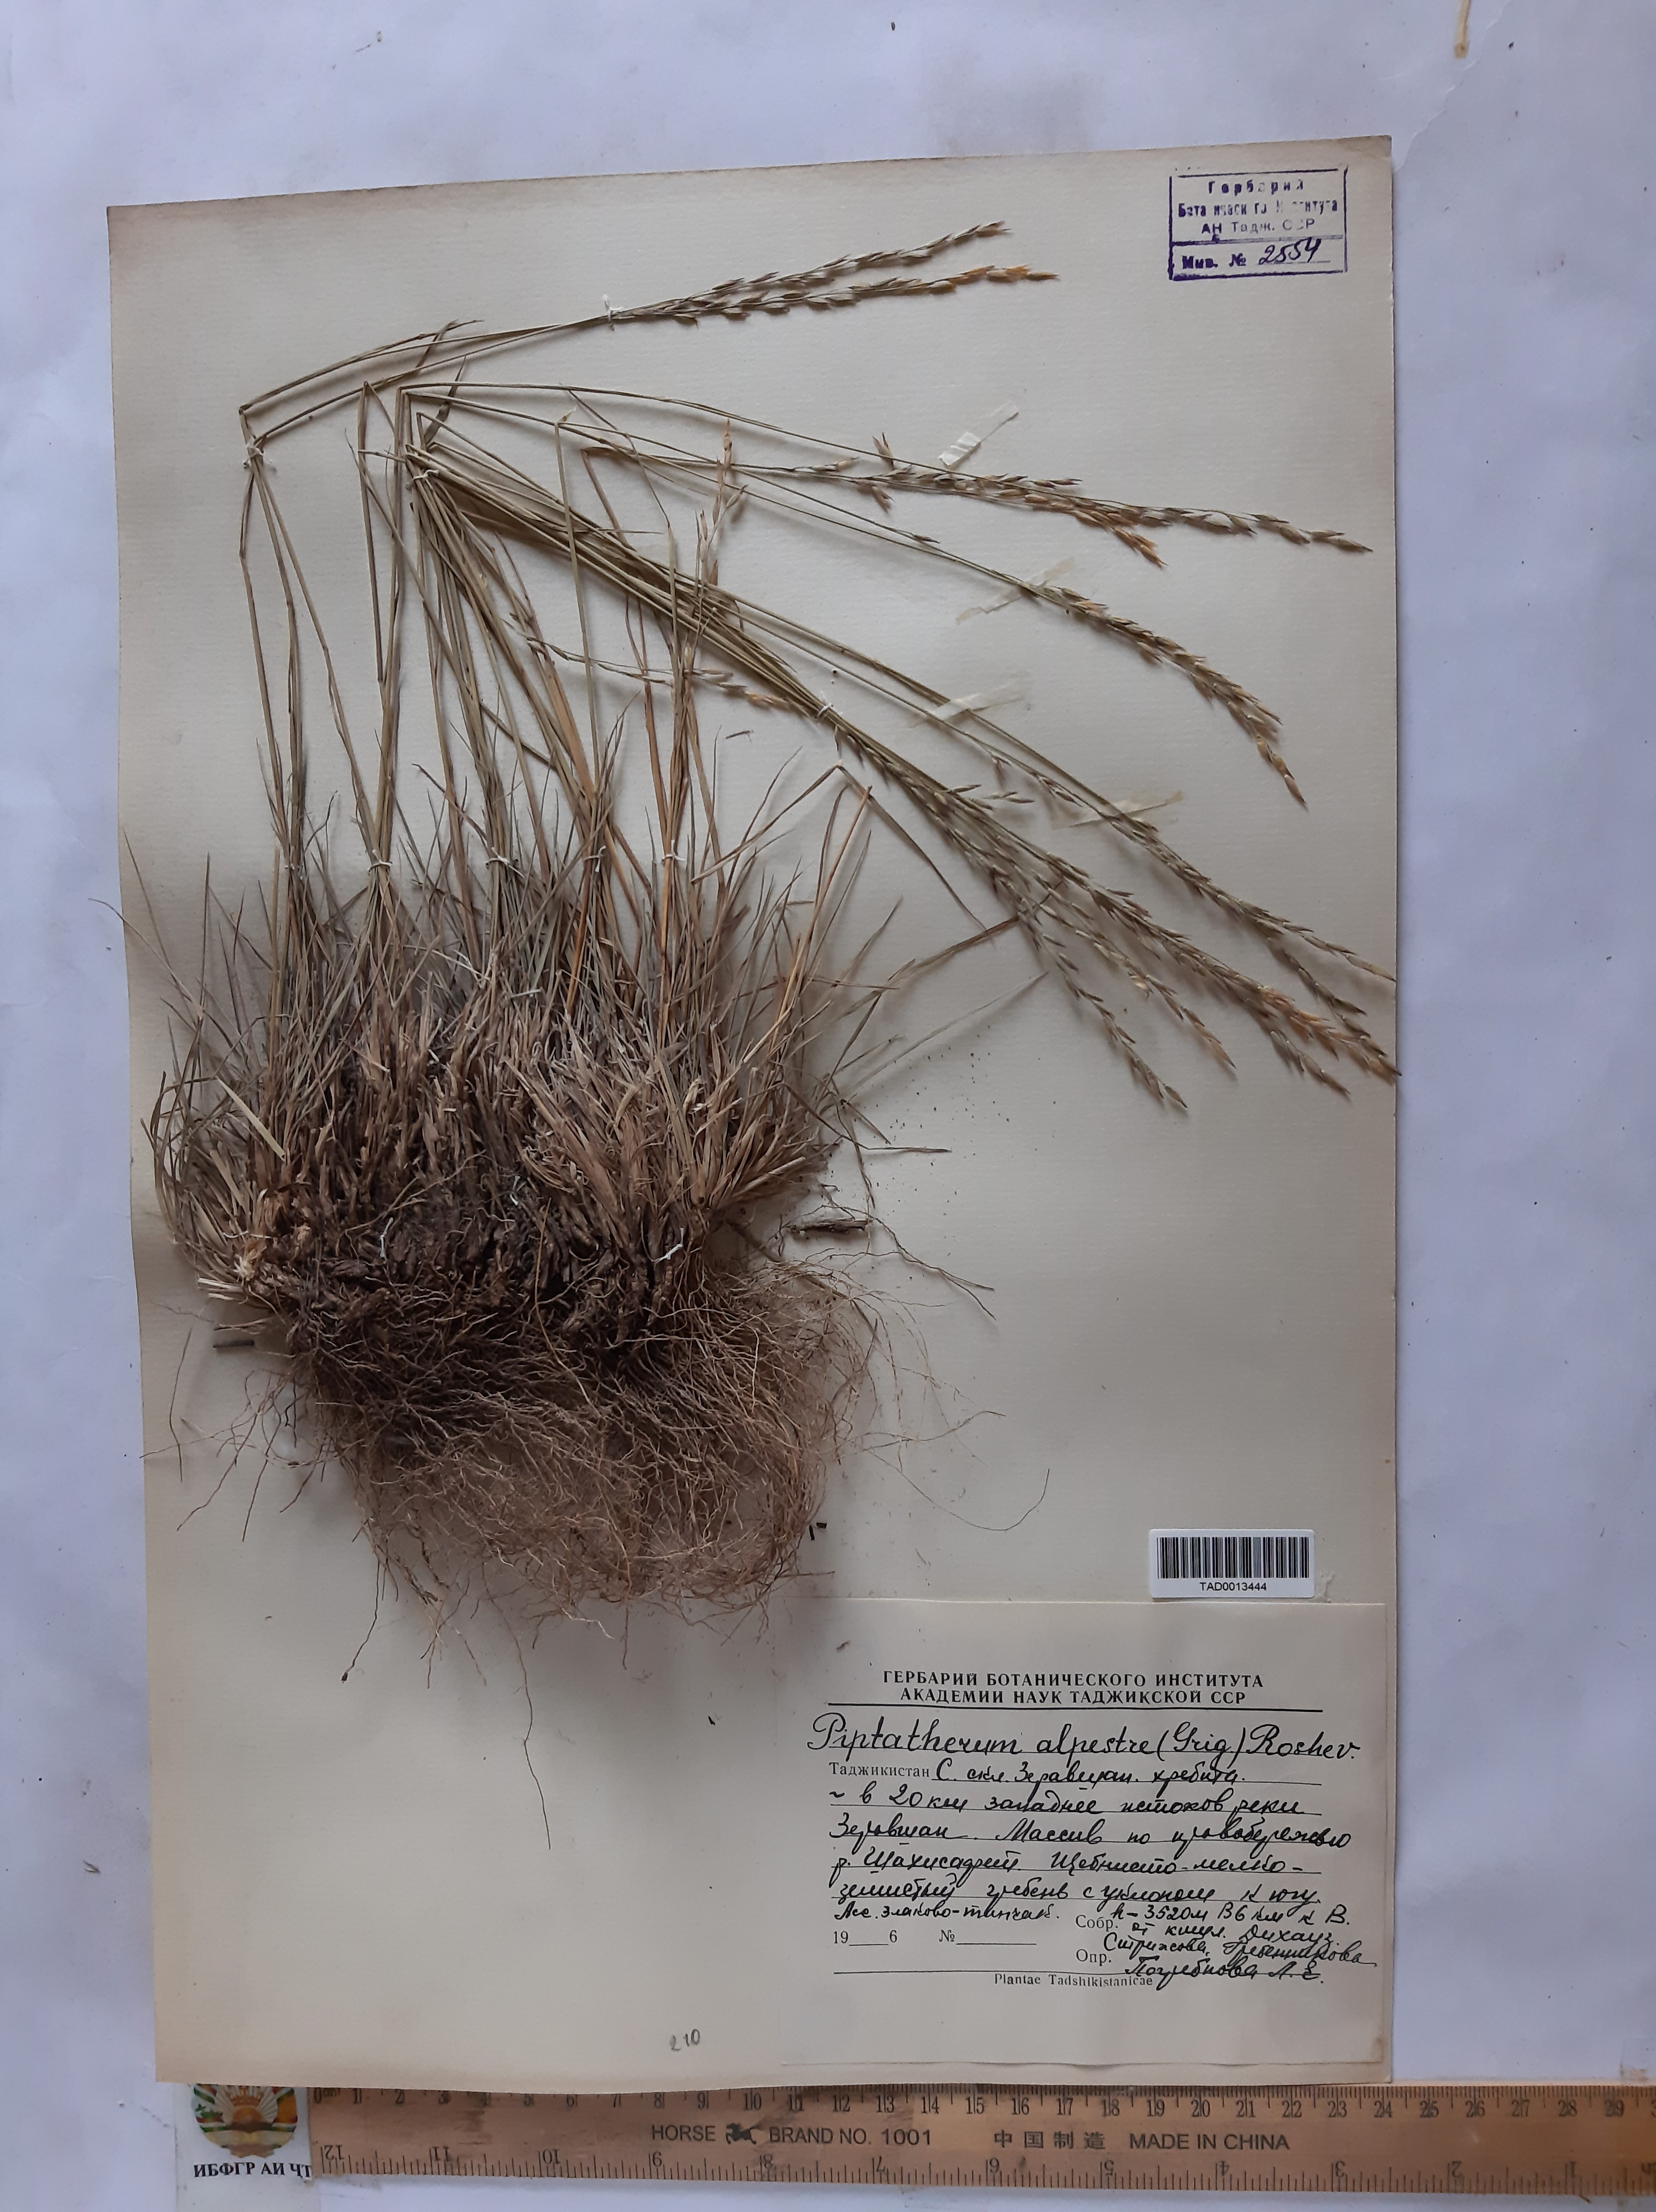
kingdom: Plantae
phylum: Tracheophyta
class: Liliopsida
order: Poales
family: Poaceae
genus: Piptatherum
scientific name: Piptatherum alpestre
